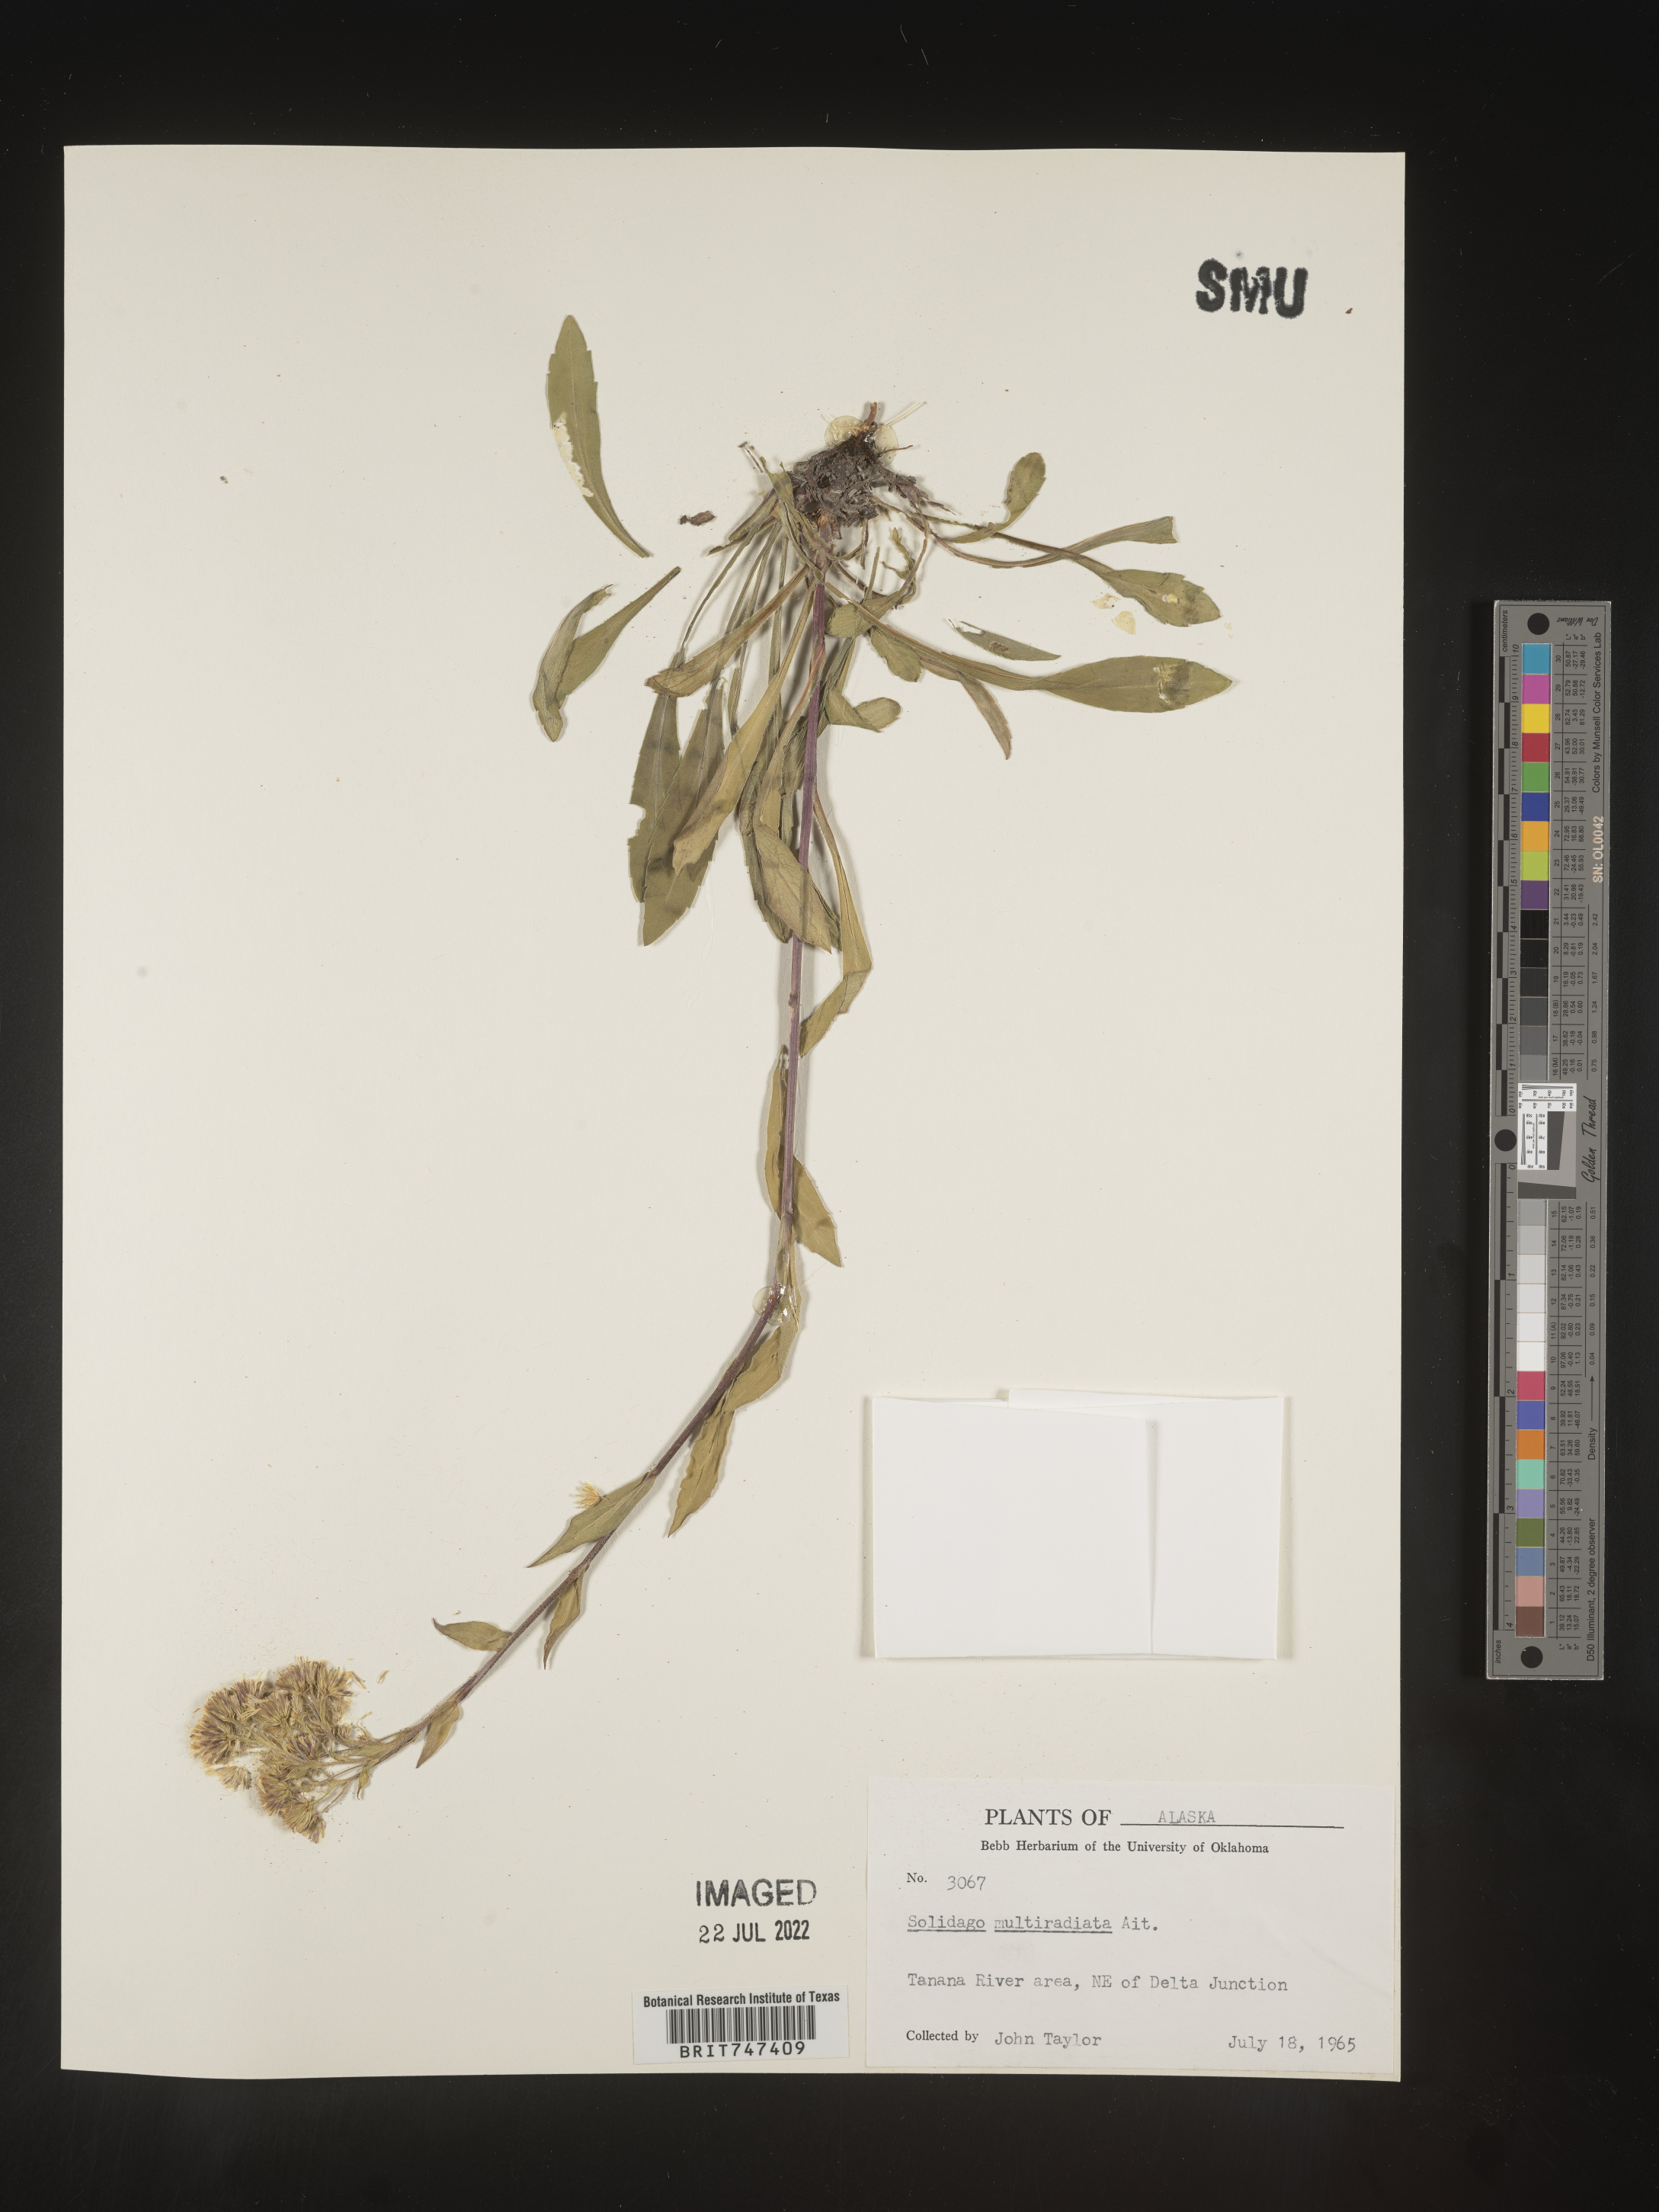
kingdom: Plantae
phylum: Tracheophyta
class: Magnoliopsida
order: Asterales
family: Asteraceae
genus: Solidago
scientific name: Solidago multiradiata
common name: Northern goldenrod
